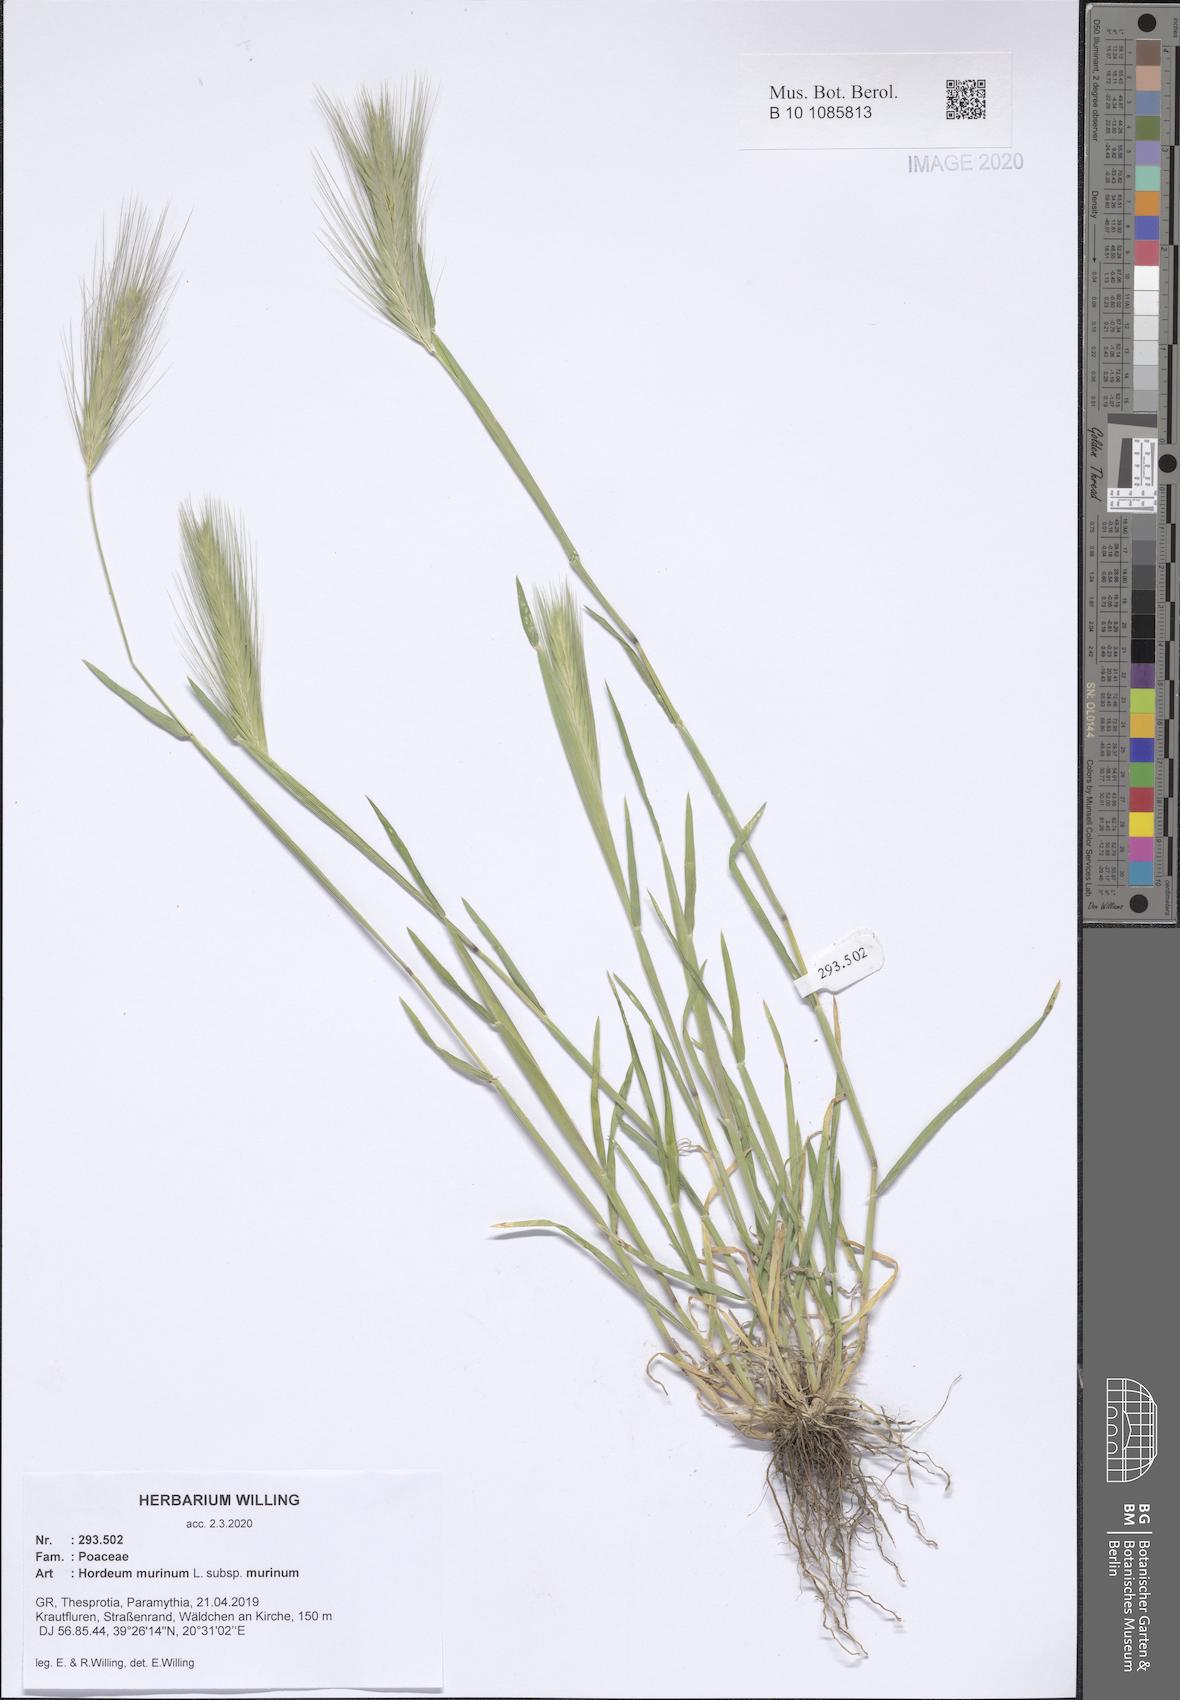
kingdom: Plantae
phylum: Tracheophyta
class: Liliopsida
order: Poales
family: Poaceae
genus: Hordeum
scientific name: Hordeum murinum
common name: Wall barley
